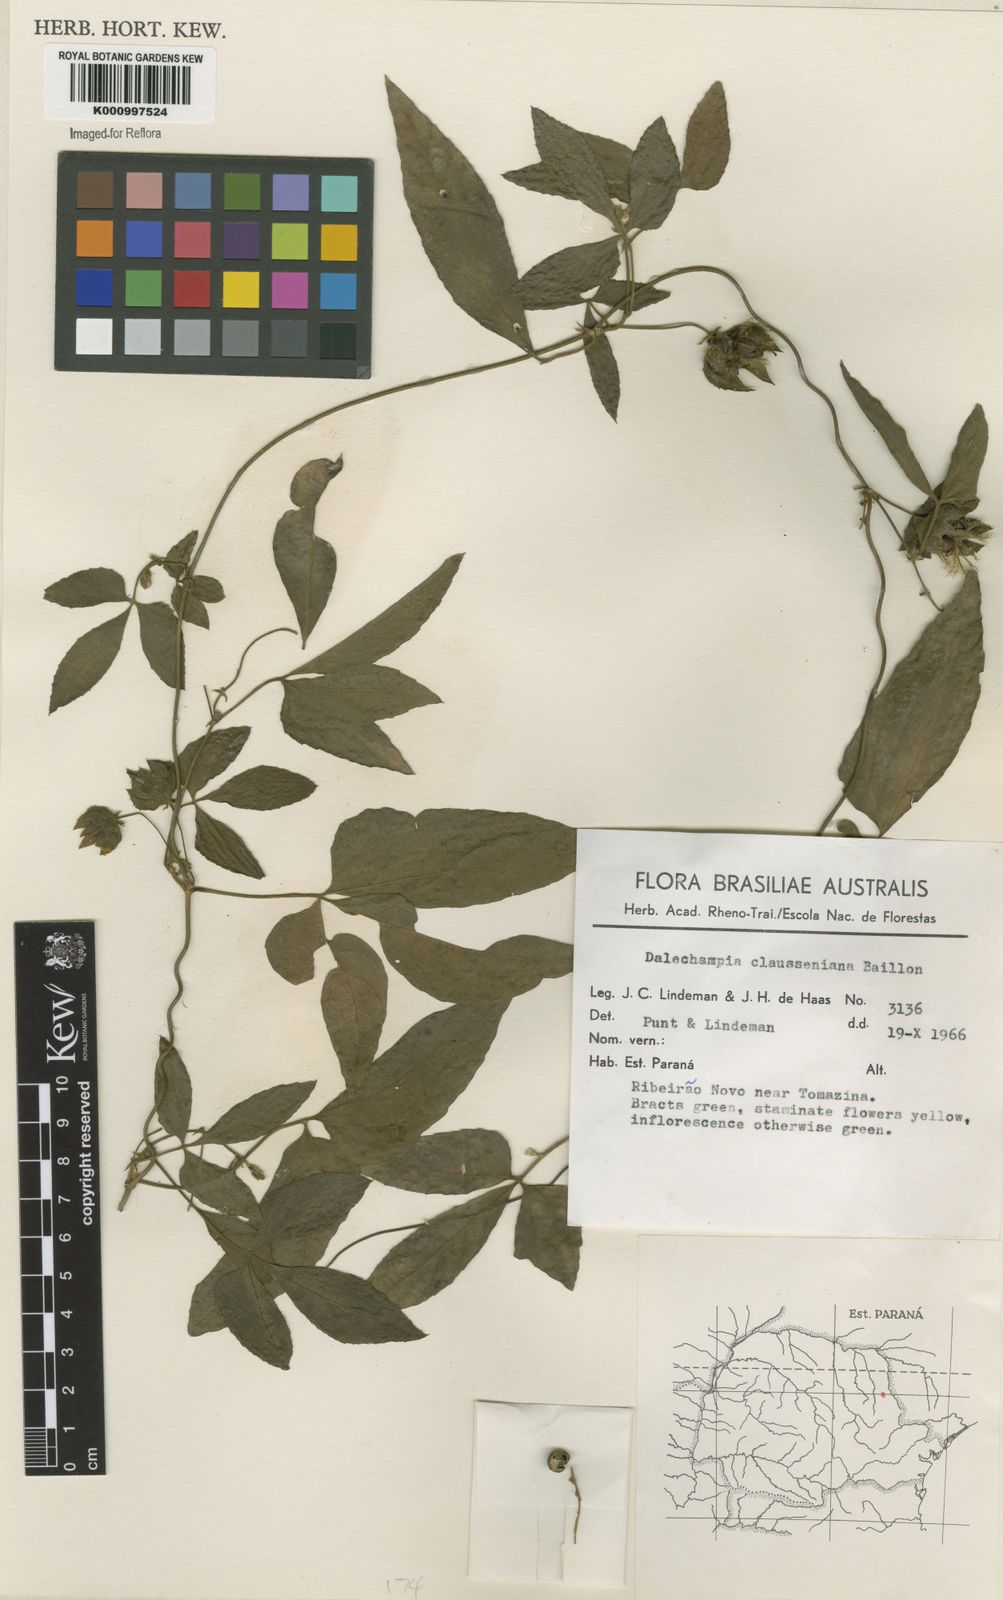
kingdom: Plantae
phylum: Tracheophyta
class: Magnoliopsida
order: Malpighiales
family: Euphorbiaceae
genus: Dalechampia
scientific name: Dalechampia clausseniana
